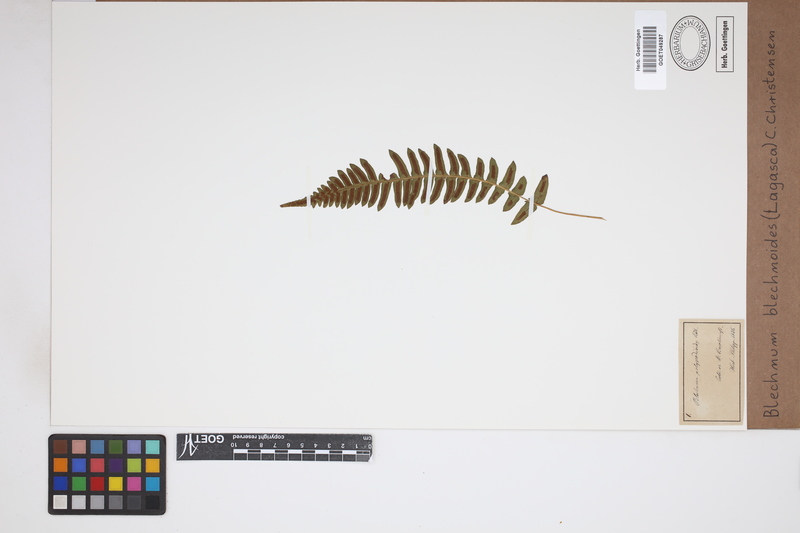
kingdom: Plantae
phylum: Tracheophyta
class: Polypodiopsida
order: Polypodiales
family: Blechnaceae
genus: Blechnum
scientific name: Blechnum polypodioides
